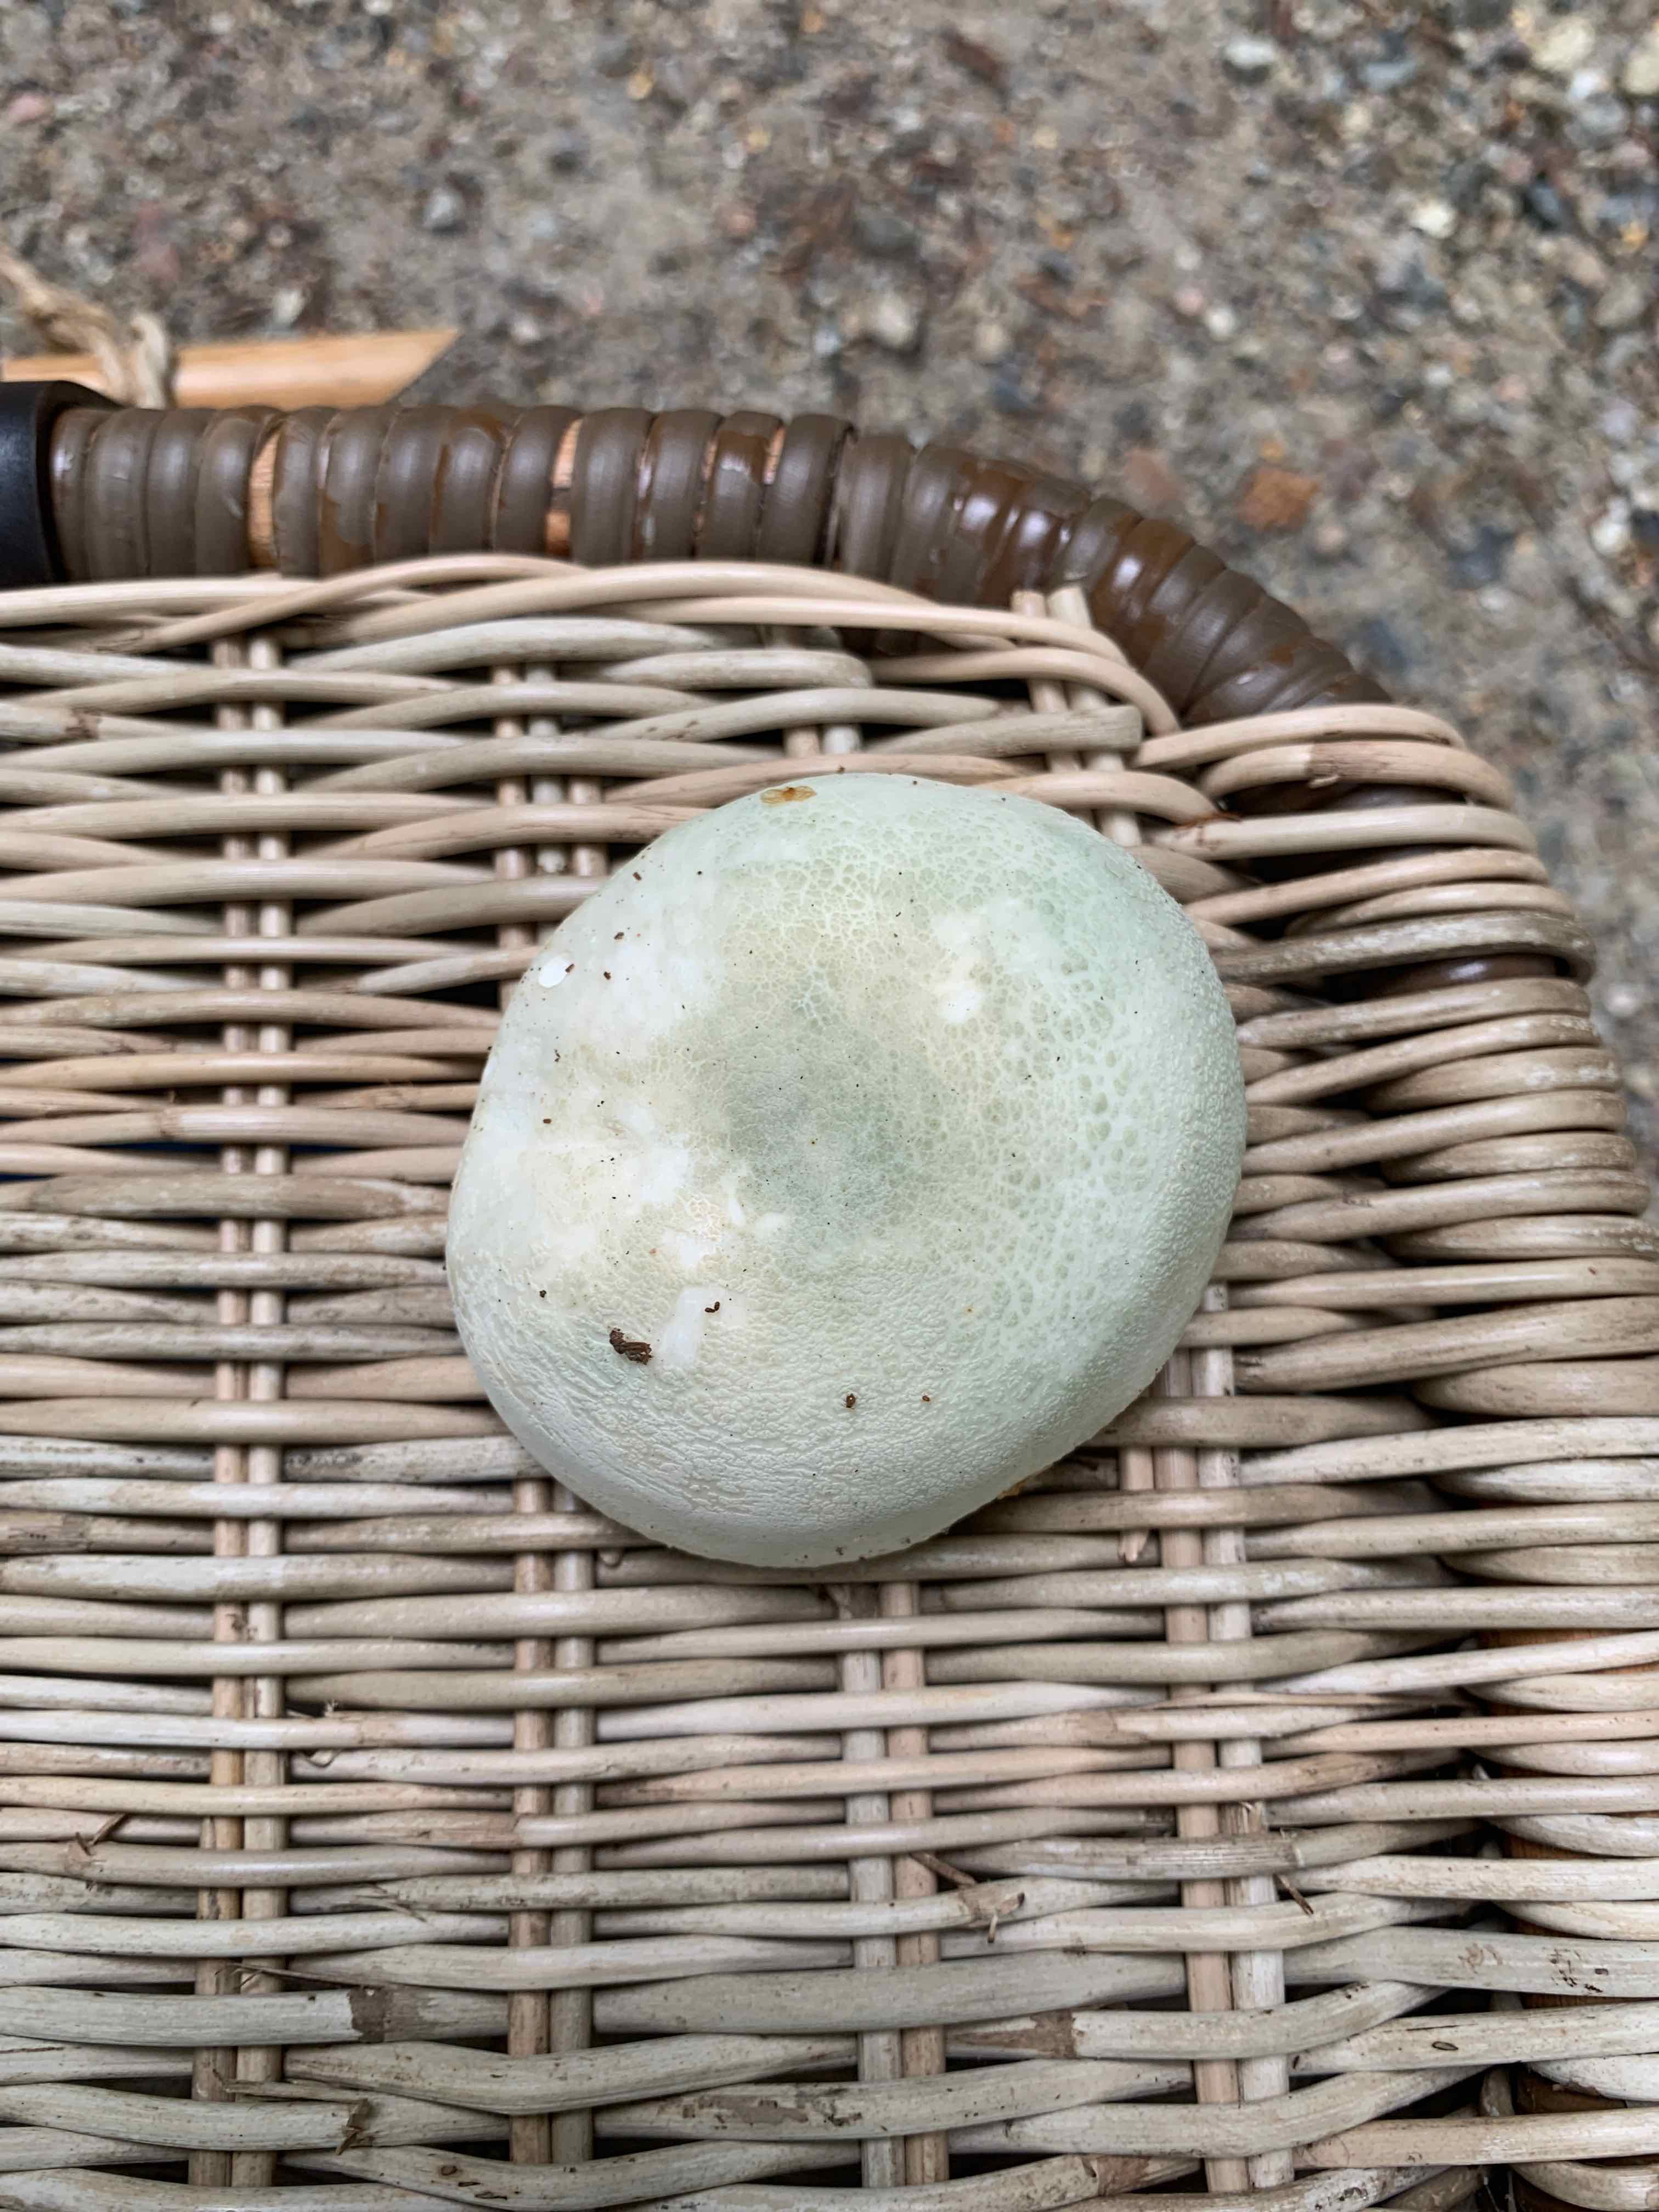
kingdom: Fungi
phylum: Basidiomycota
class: Agaricomycetes
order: Russulales
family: Russulaceae
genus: Russula
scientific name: Russula virescens
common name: spanskgrøn skørhat
